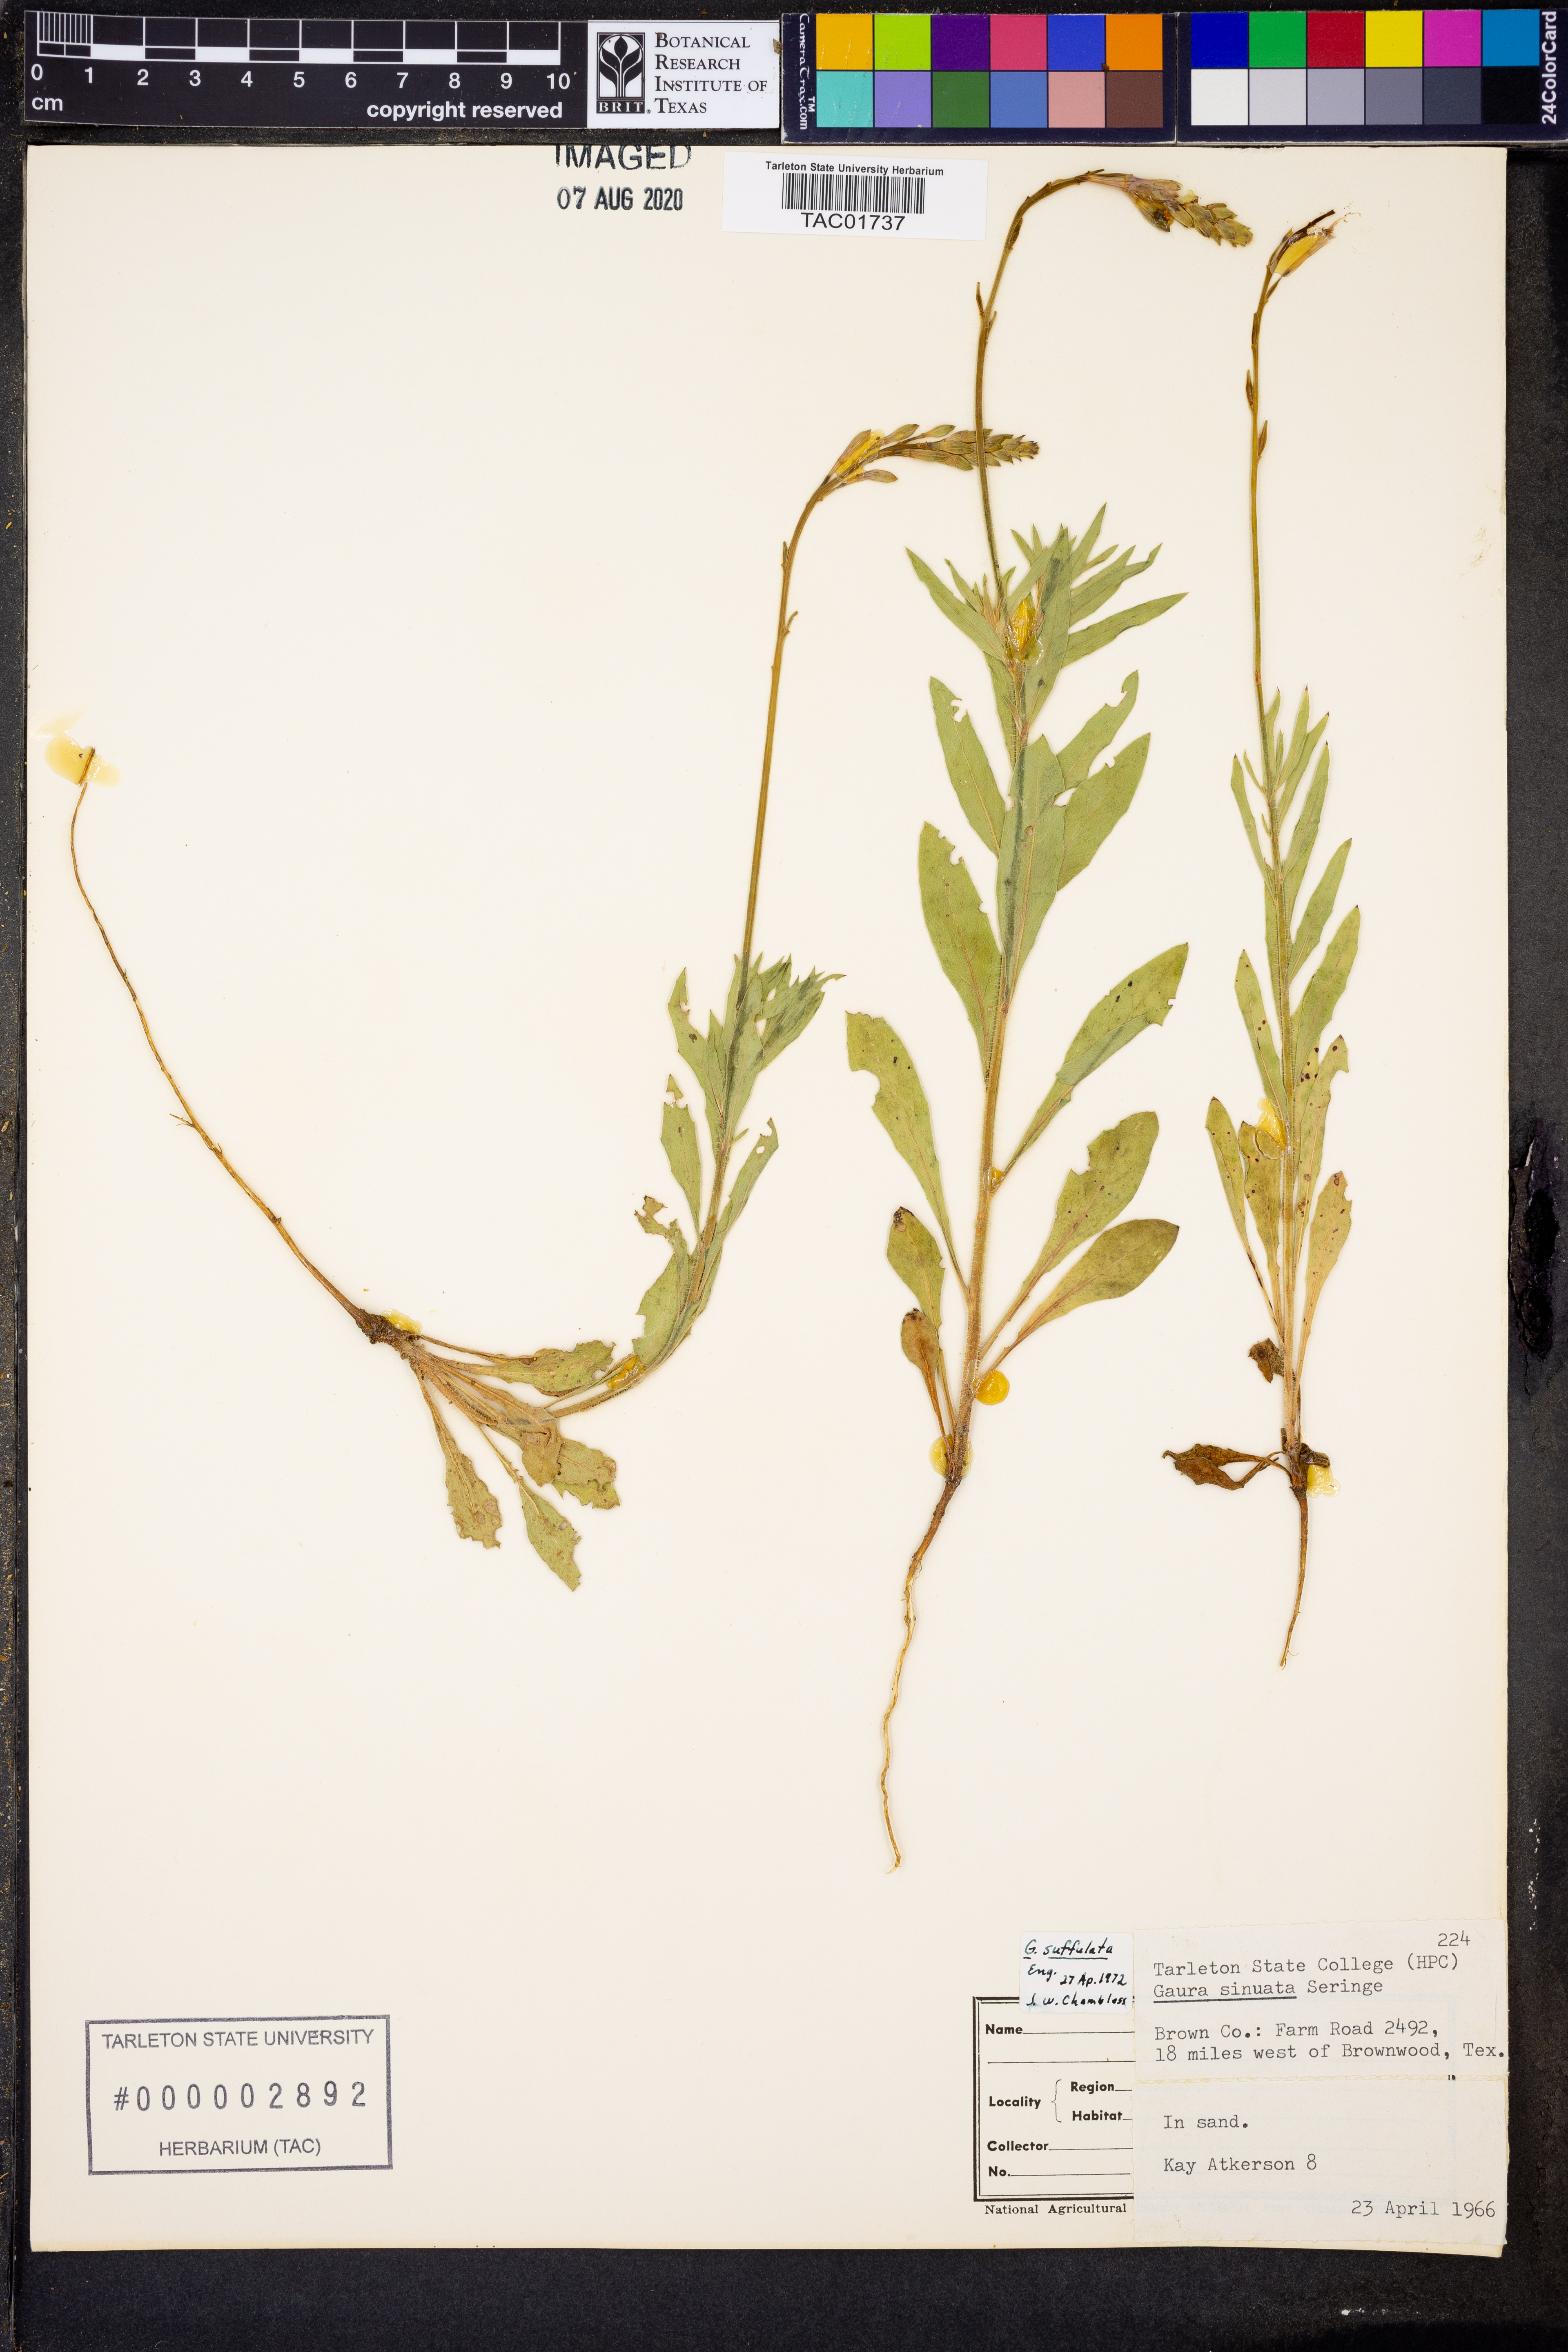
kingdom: Plantae
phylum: Tracheophyta
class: Magnoliopsida
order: Myrtales
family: Onagraceae
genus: Oenothera
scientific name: Oenothera Gaura suffulta
